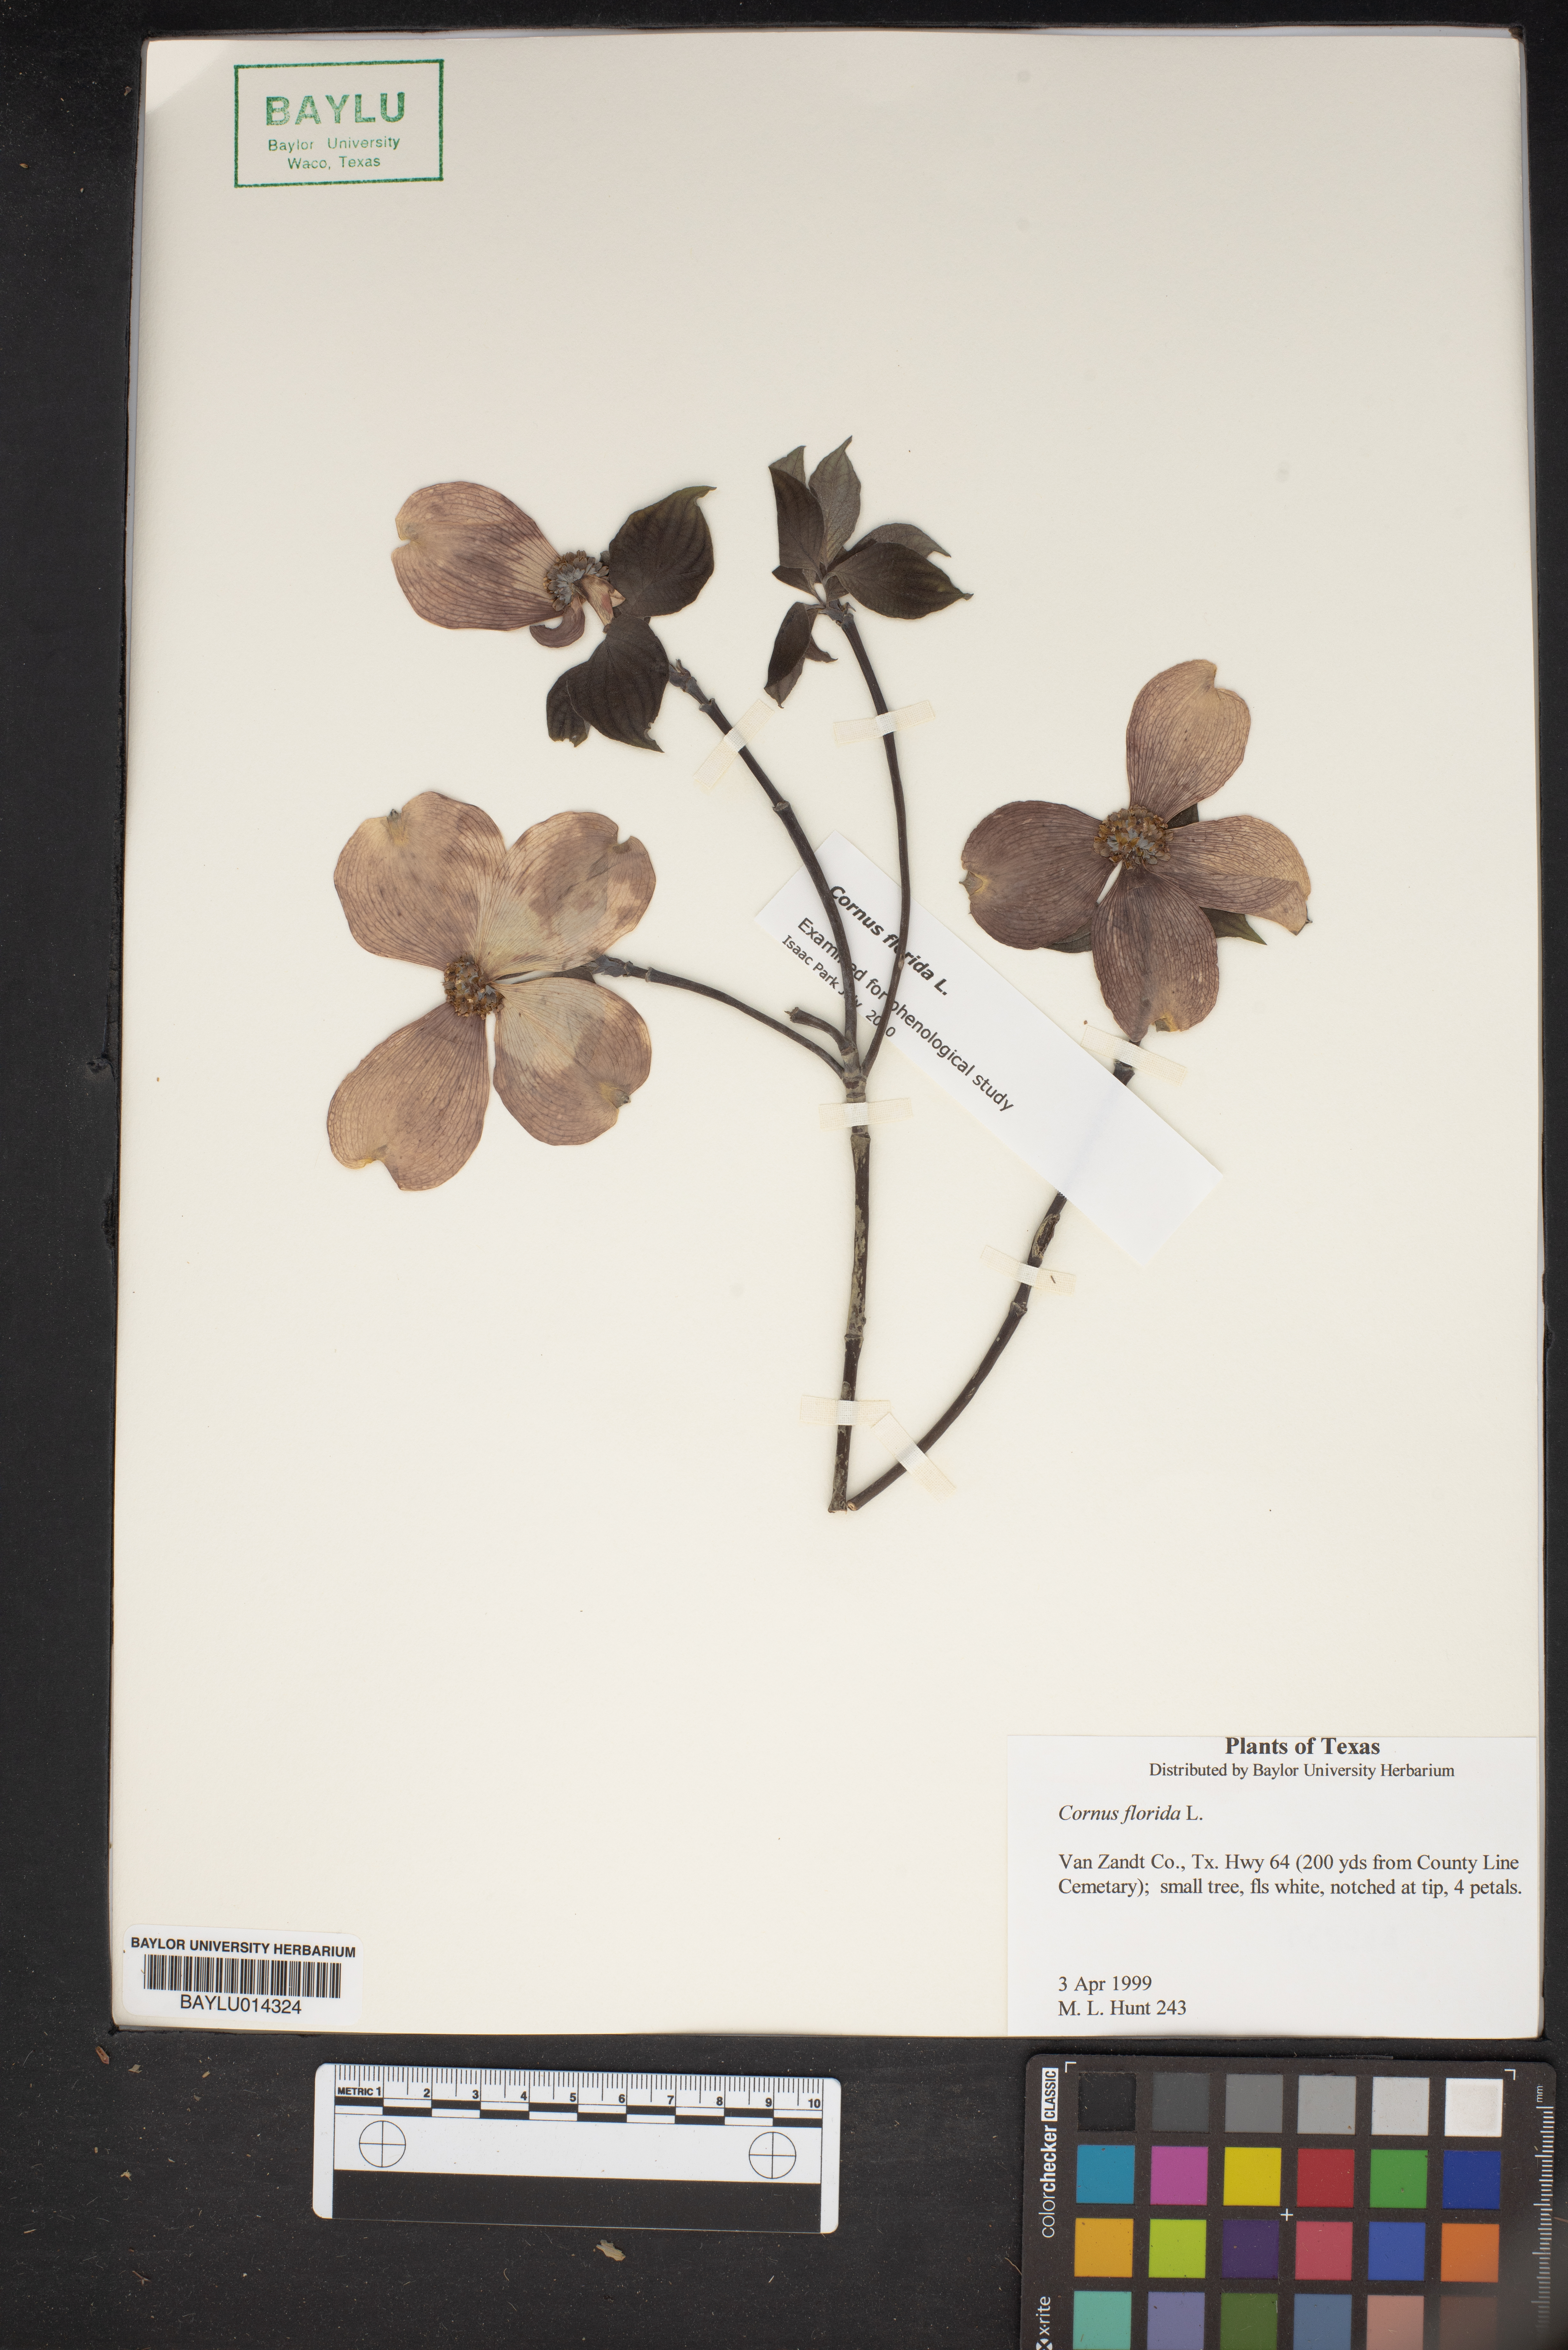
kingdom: Plantae
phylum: Tracheophyta
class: Magnoliopsida
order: Cornales
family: Cornaceae
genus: Cornus
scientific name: Cornus florida
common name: Flowering dogwood
